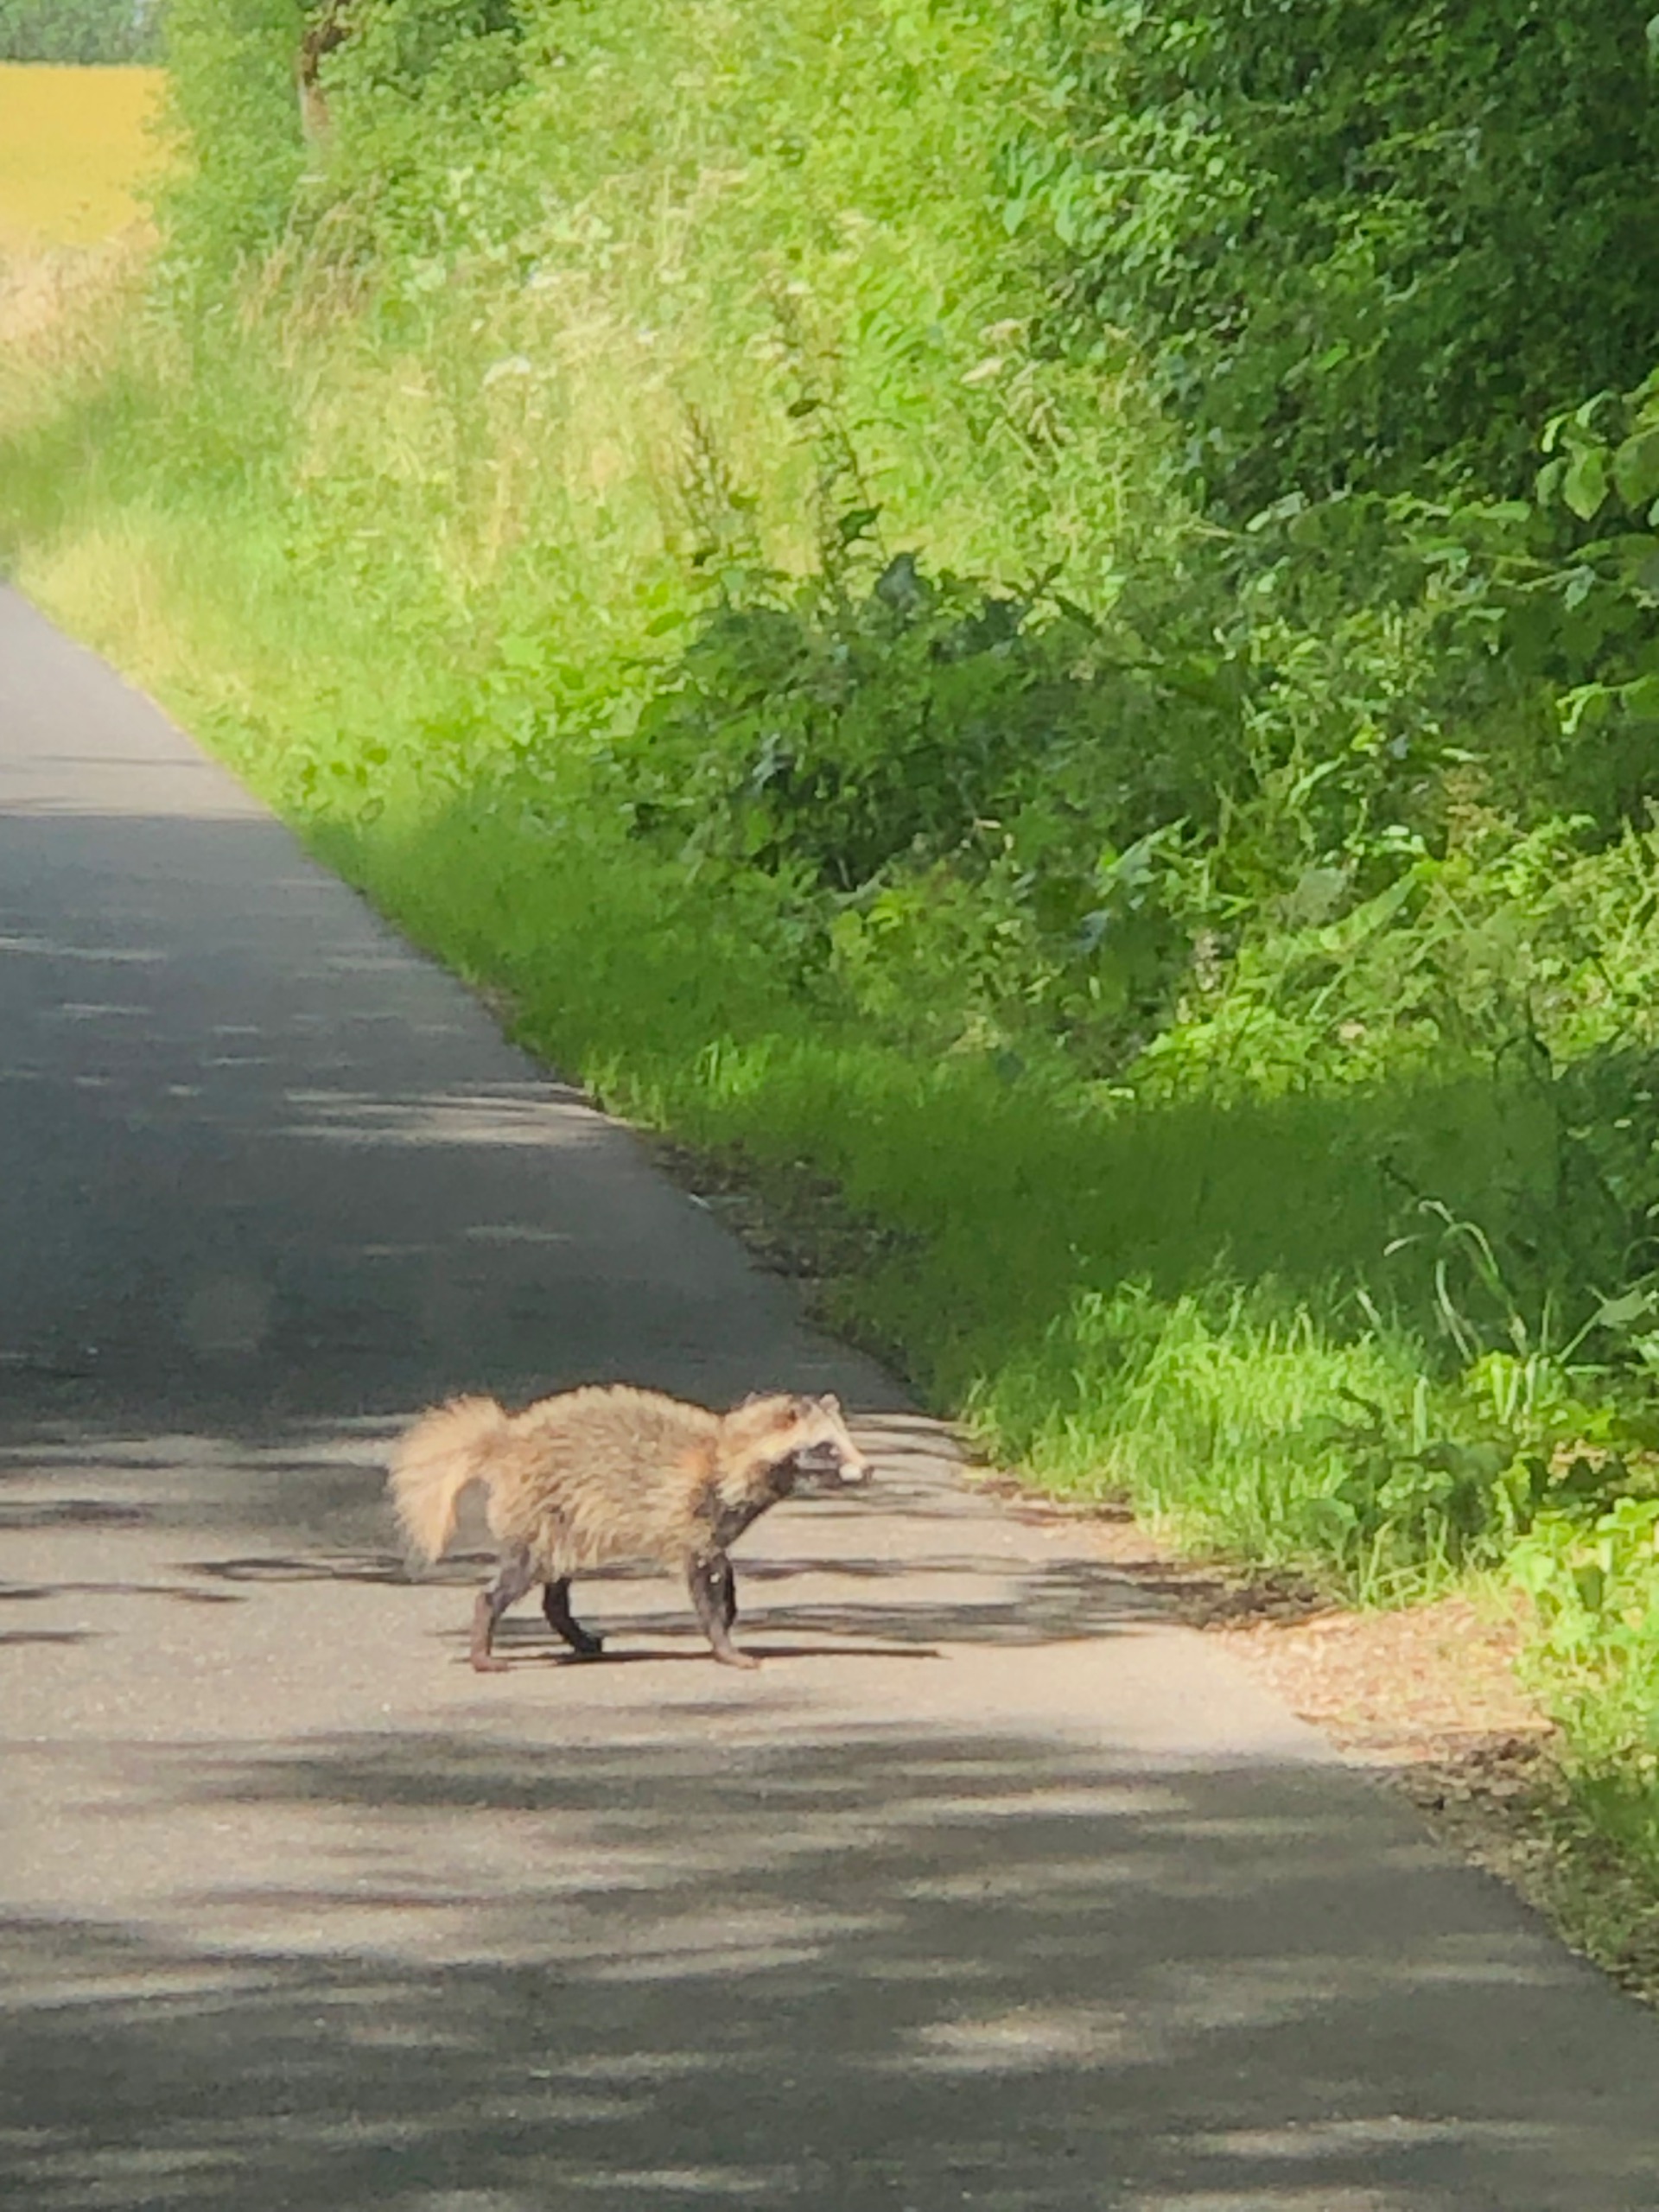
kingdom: Animalia
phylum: Chordata
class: Mammalia
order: Carnivora
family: Canidae
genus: Nyctereutes
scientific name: Nyctereutes procyonoides
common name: Mårhund
